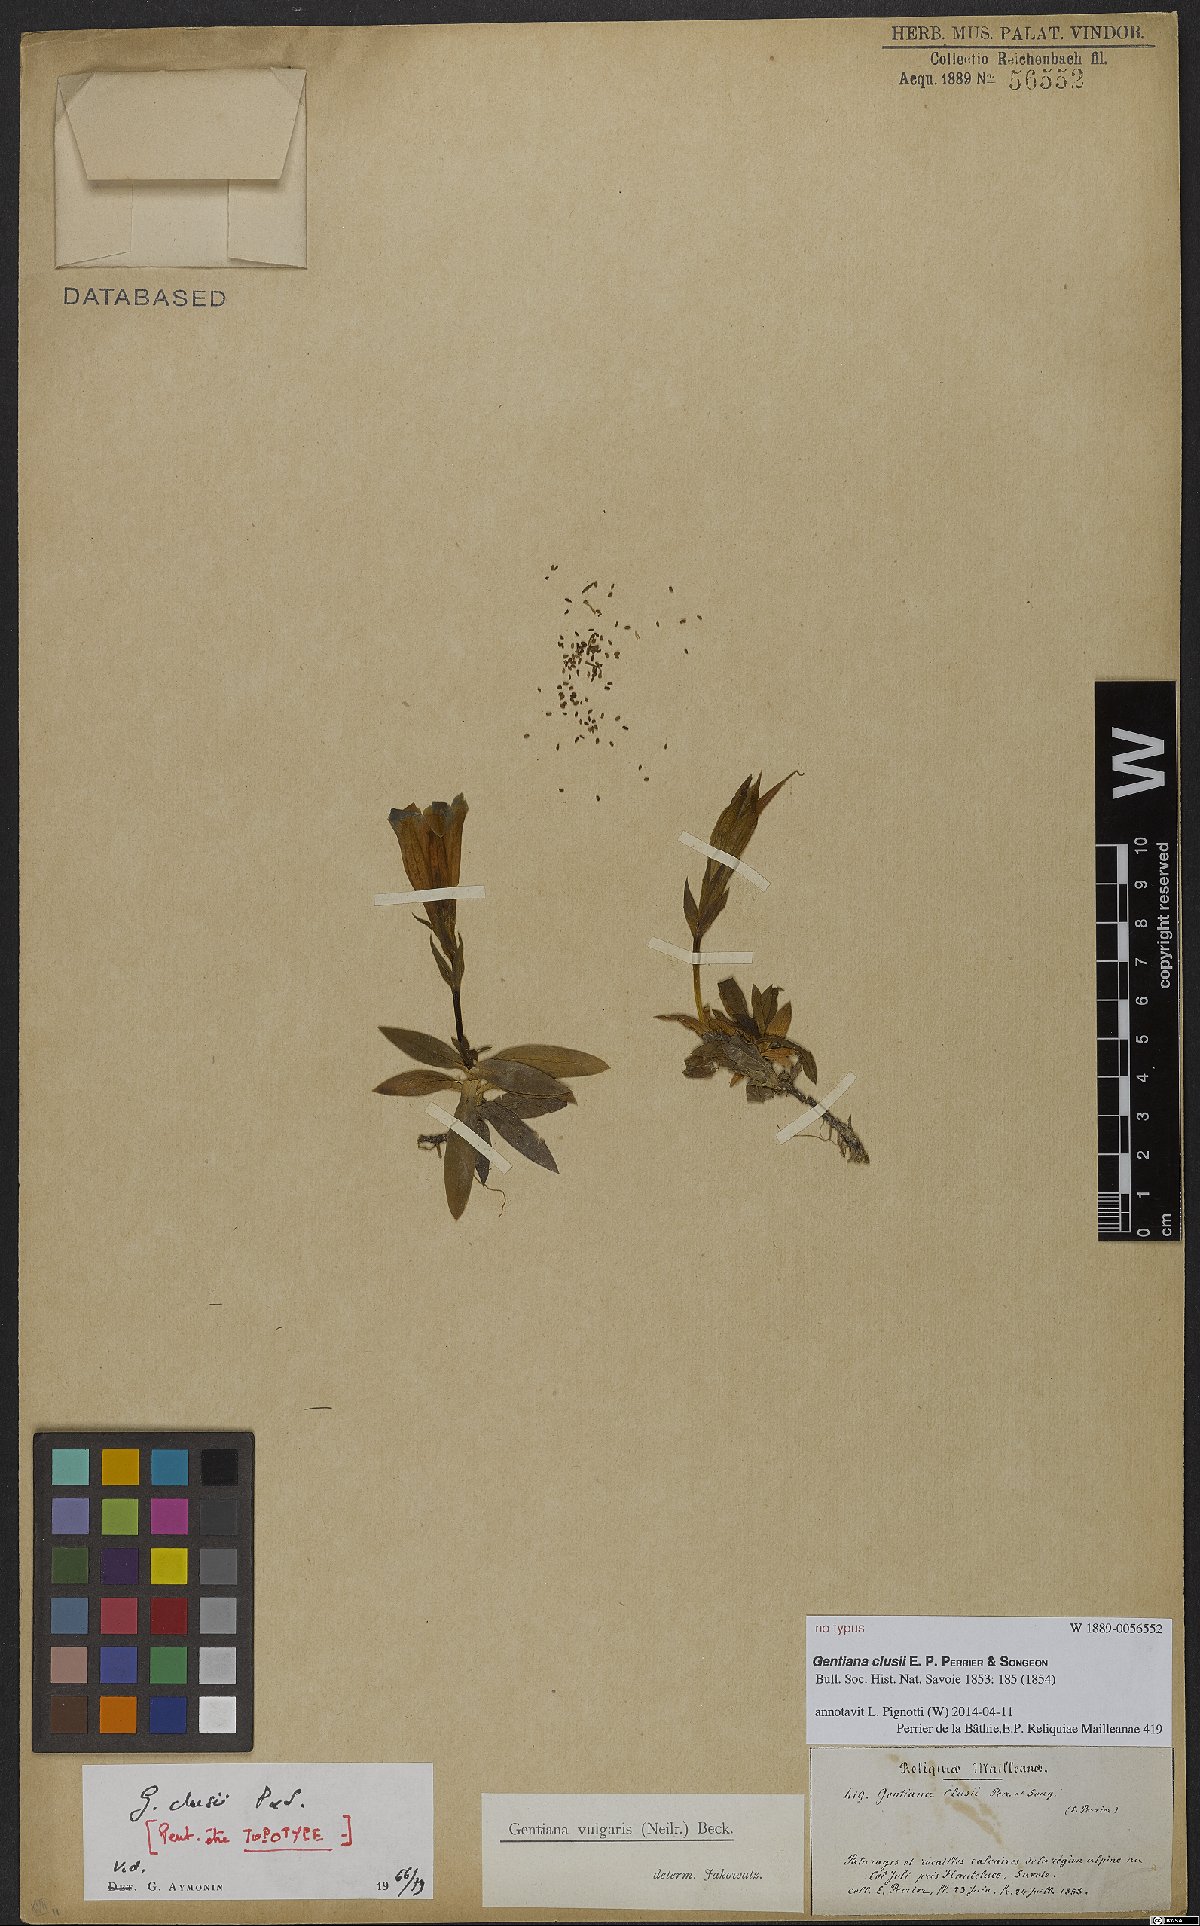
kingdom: Plantae
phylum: Tracheophyta
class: Magnoliopsida
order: Gentianales
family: Gentianaceae
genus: Gentiana
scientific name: Gentiana clusii
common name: Trumpet gentian
